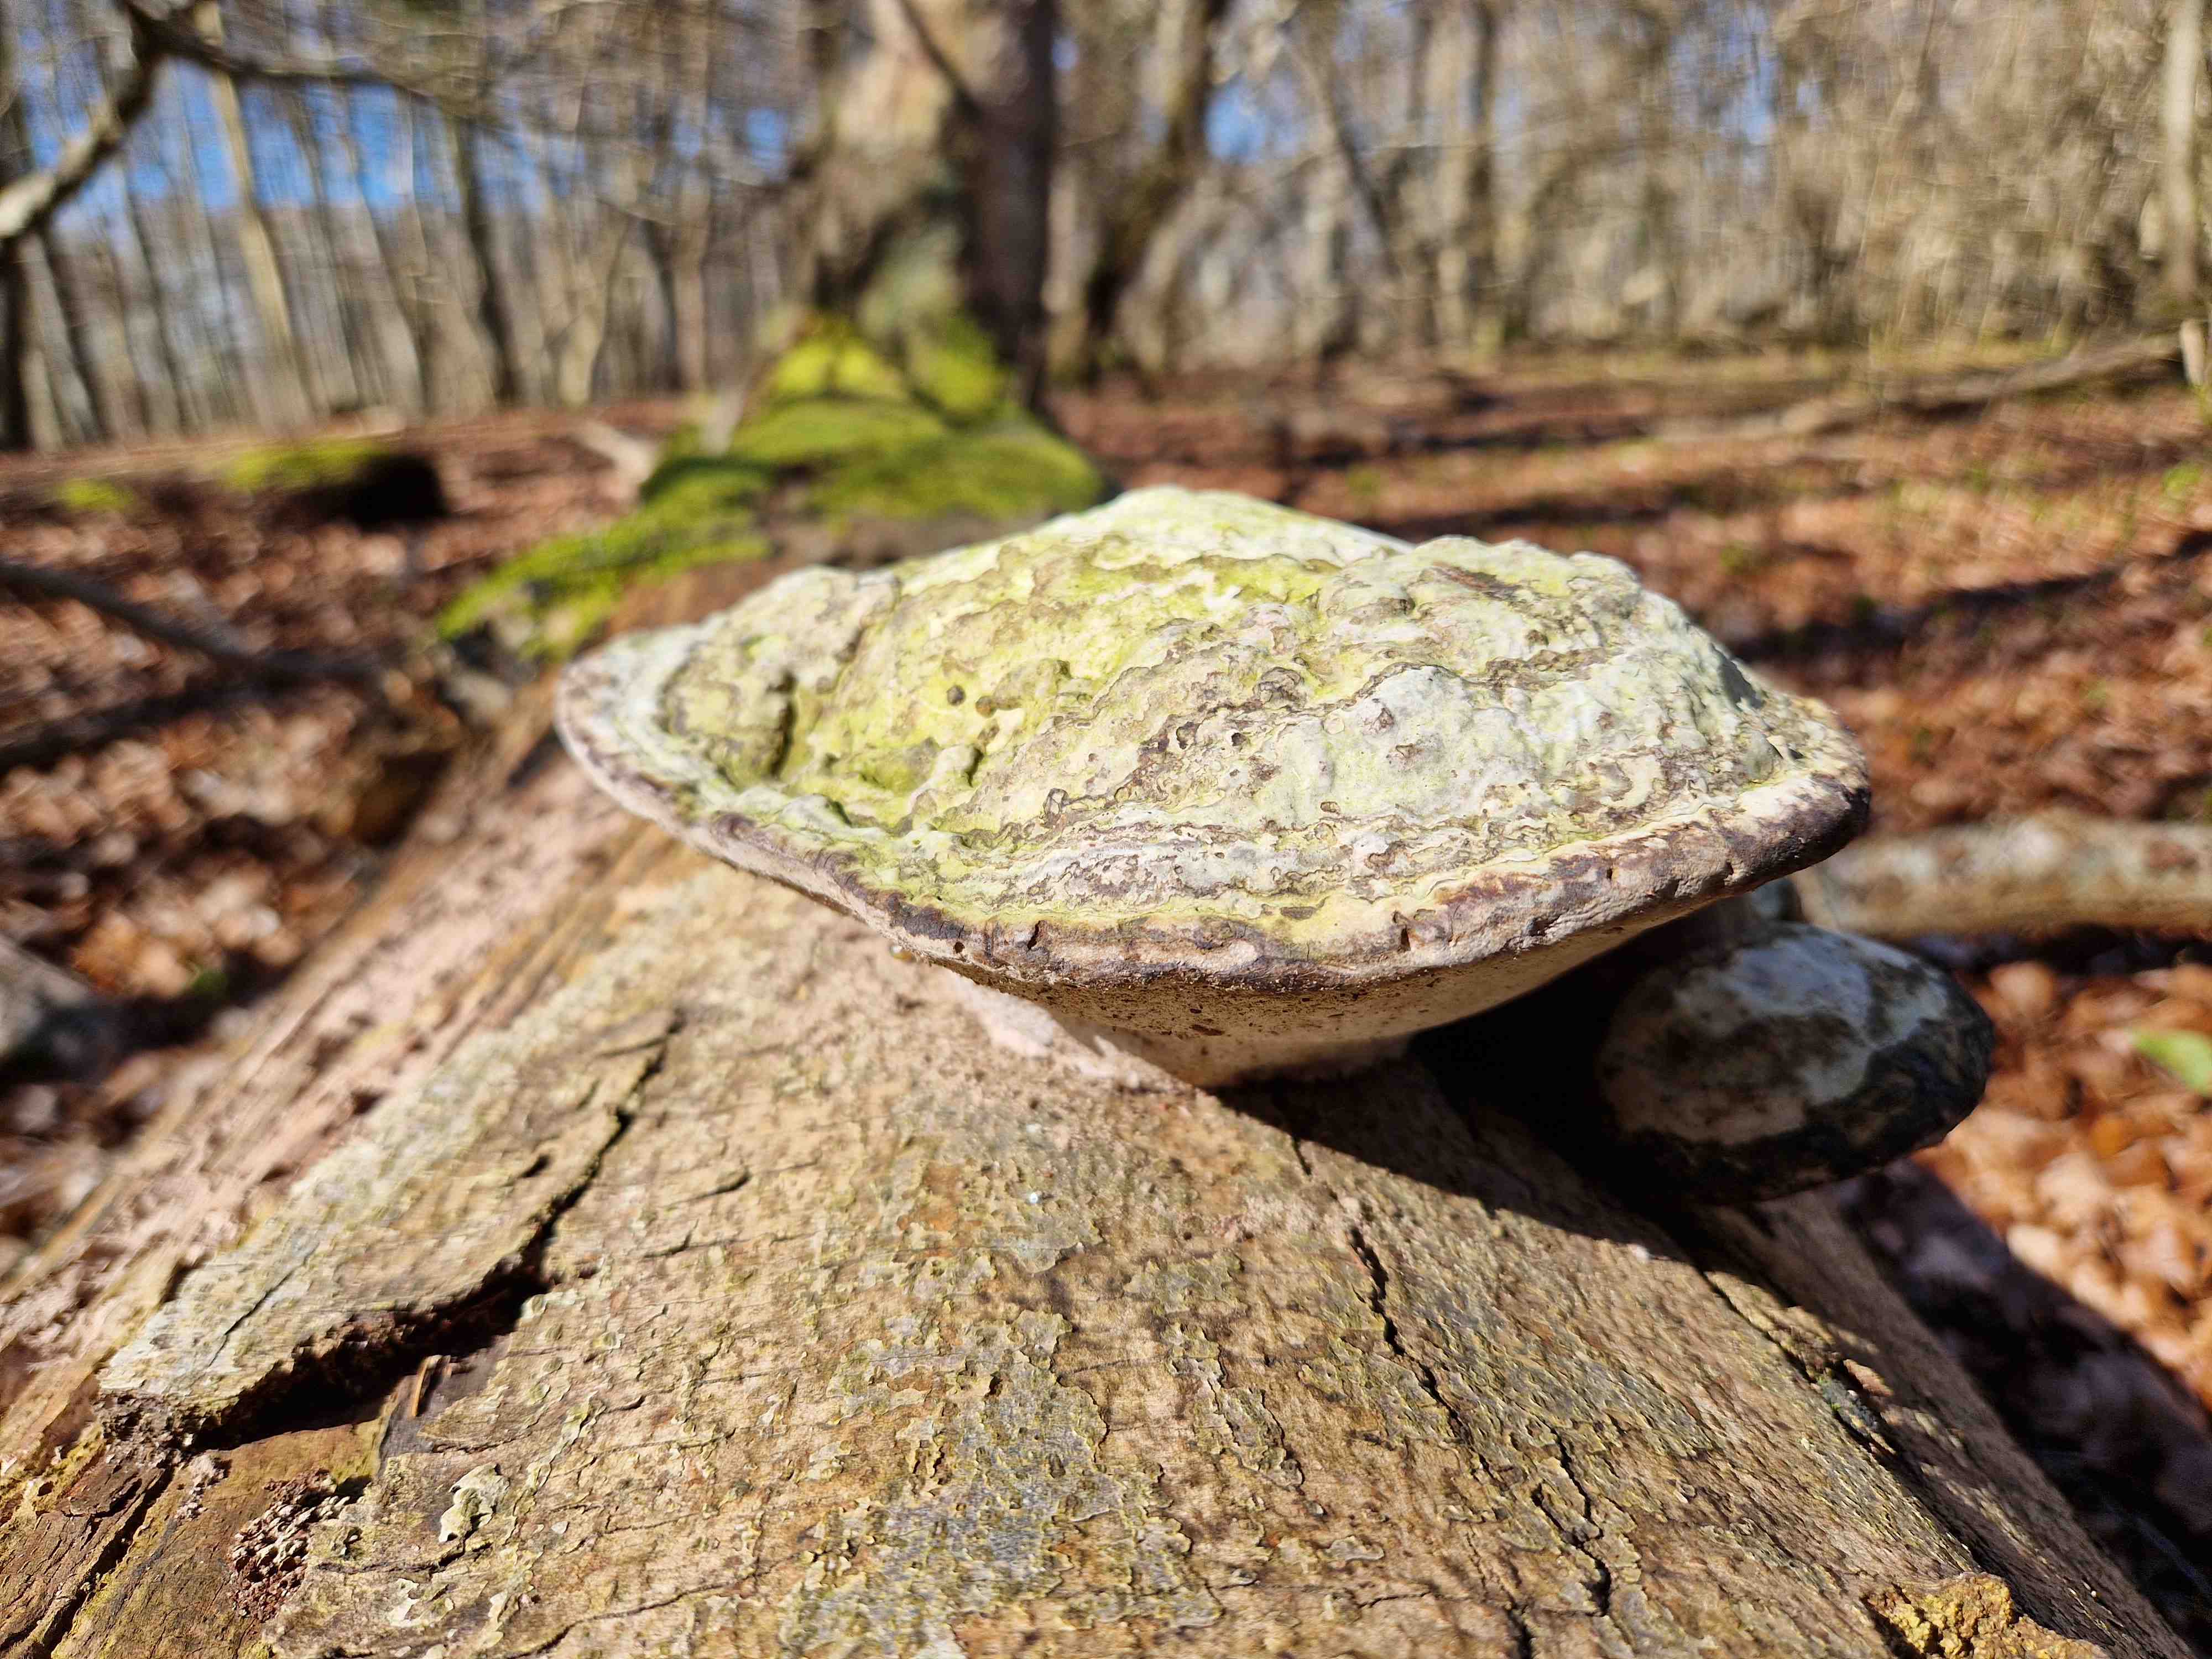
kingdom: Fungi
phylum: Basidiomycota
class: Agaricomycetes
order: Polyporales
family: Polyporaceae
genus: Fomes
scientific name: Fomes fomentarius
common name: tøndersvamp
